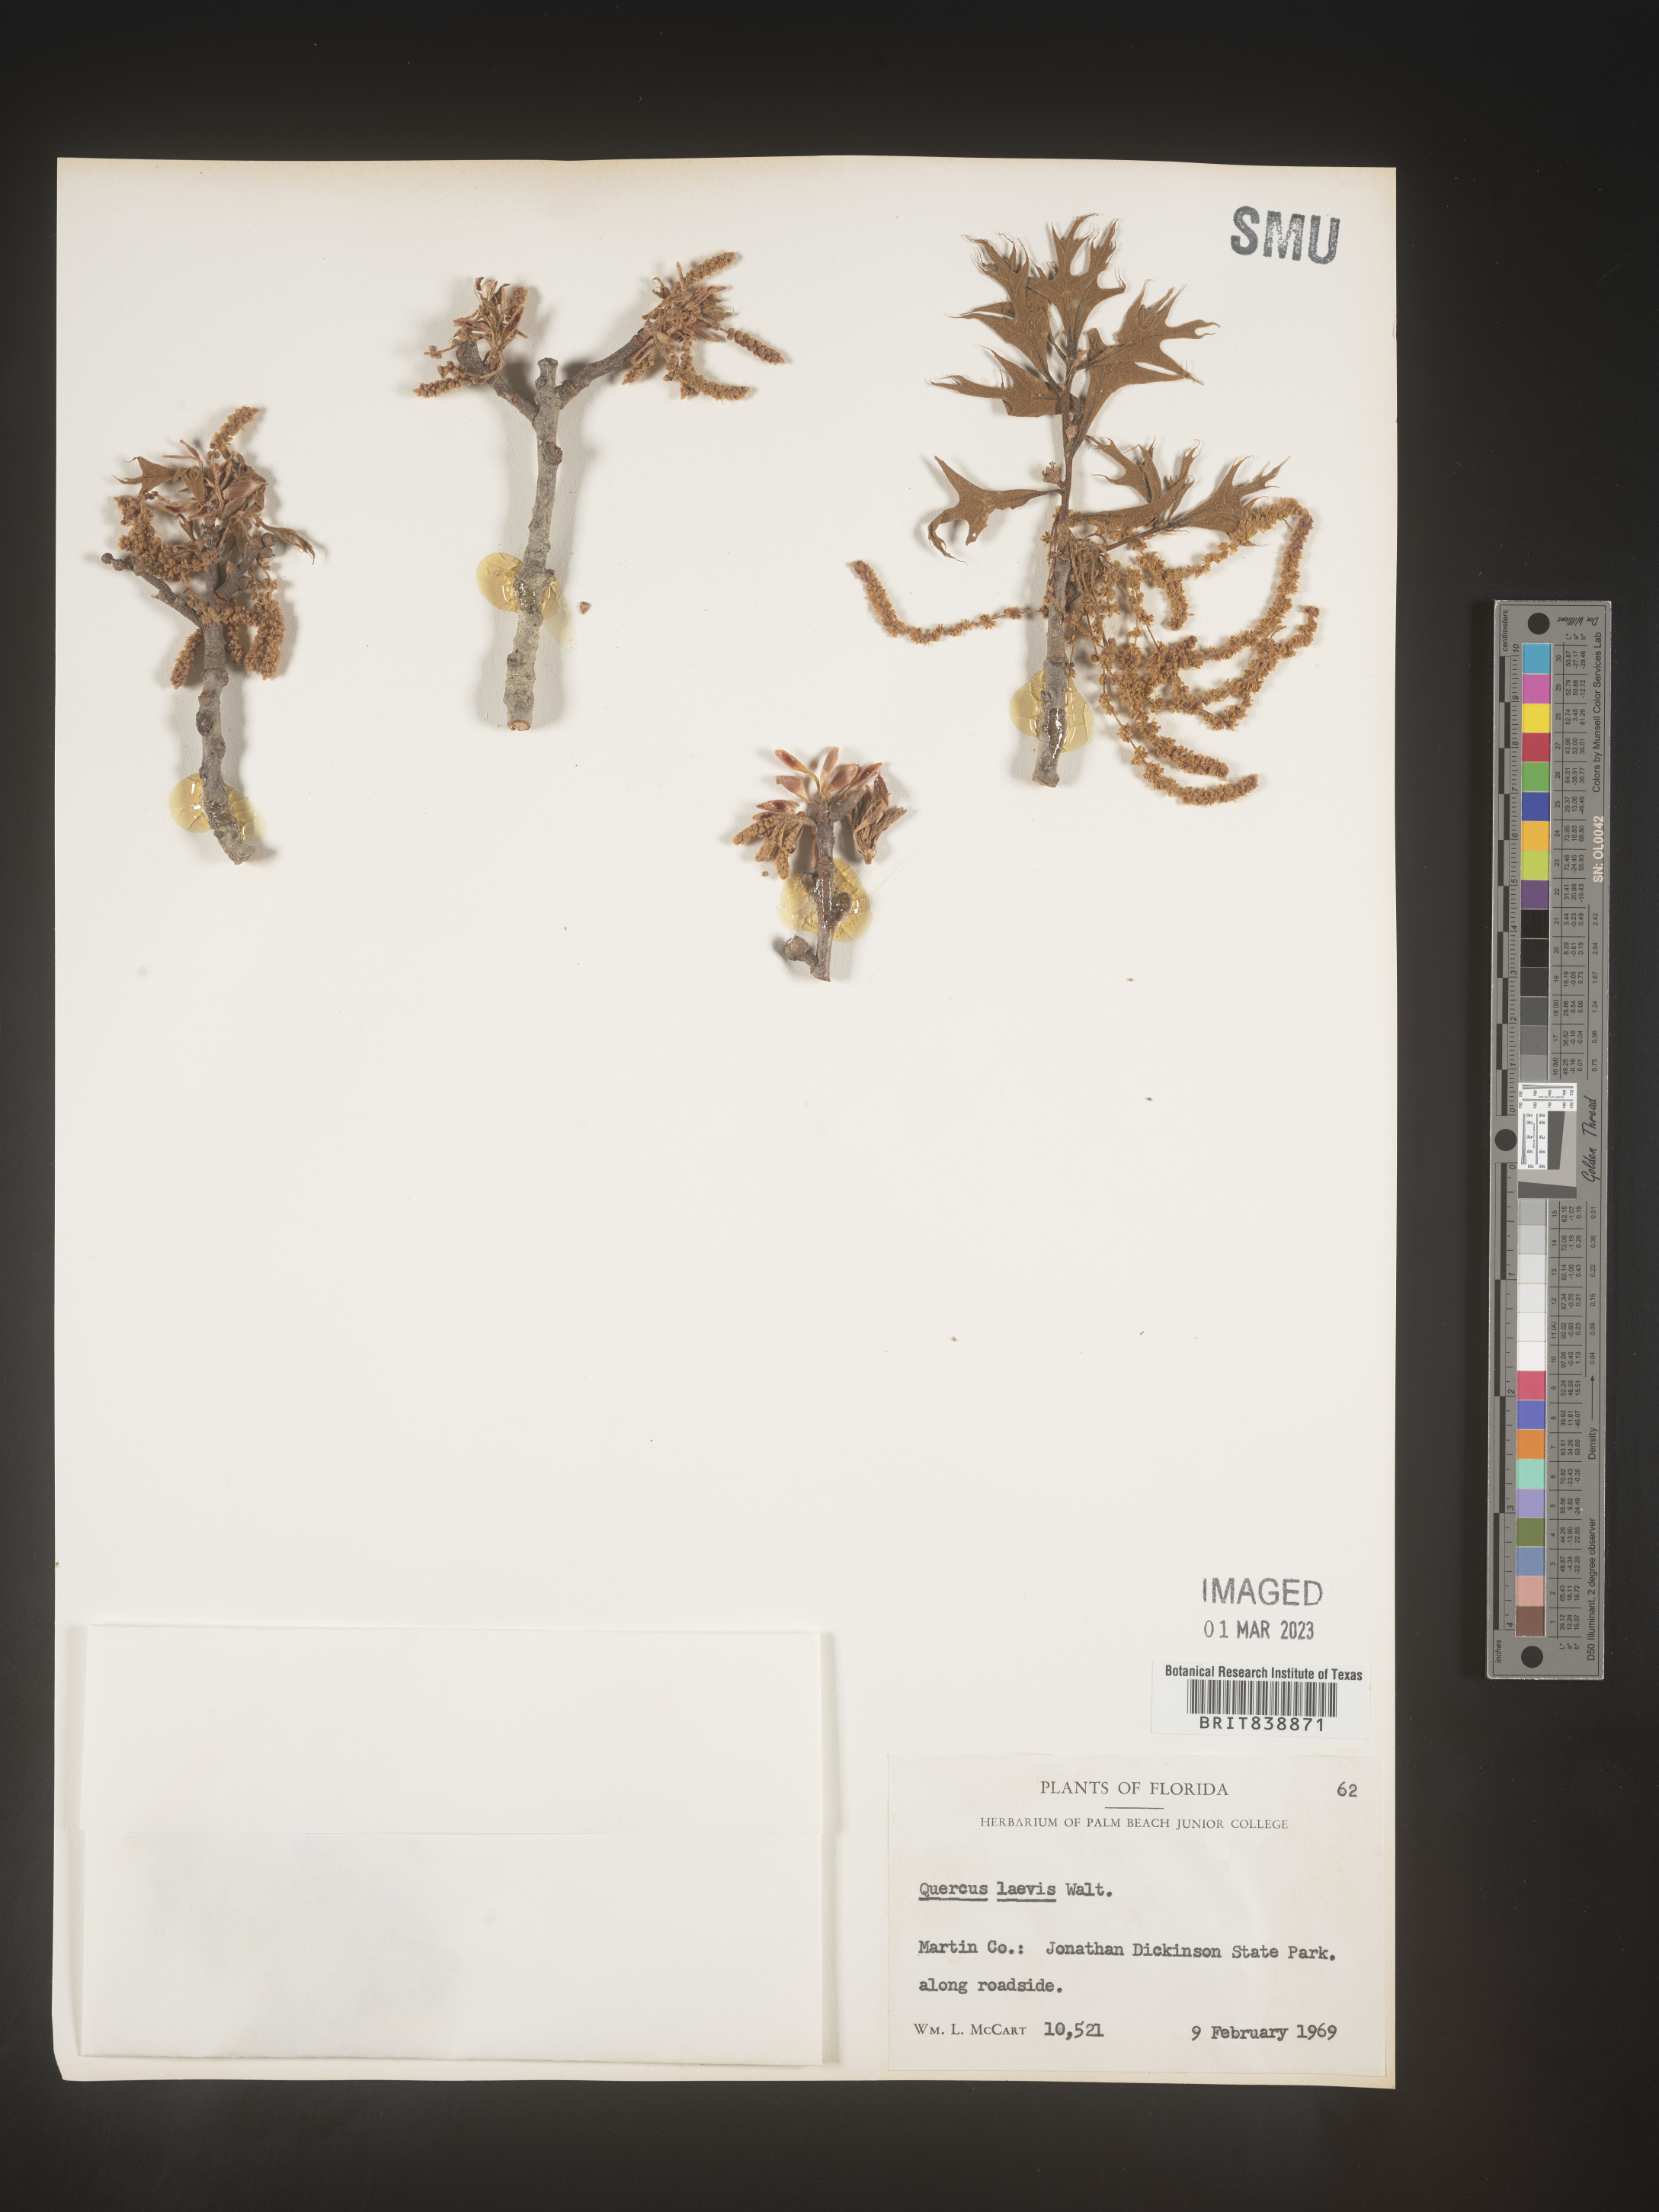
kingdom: Plantae
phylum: Tracheophyta
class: Magnoliopsida
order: Fagales
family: Fagaceae
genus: Quercus
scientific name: Quercus laevis
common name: Turkey oak
